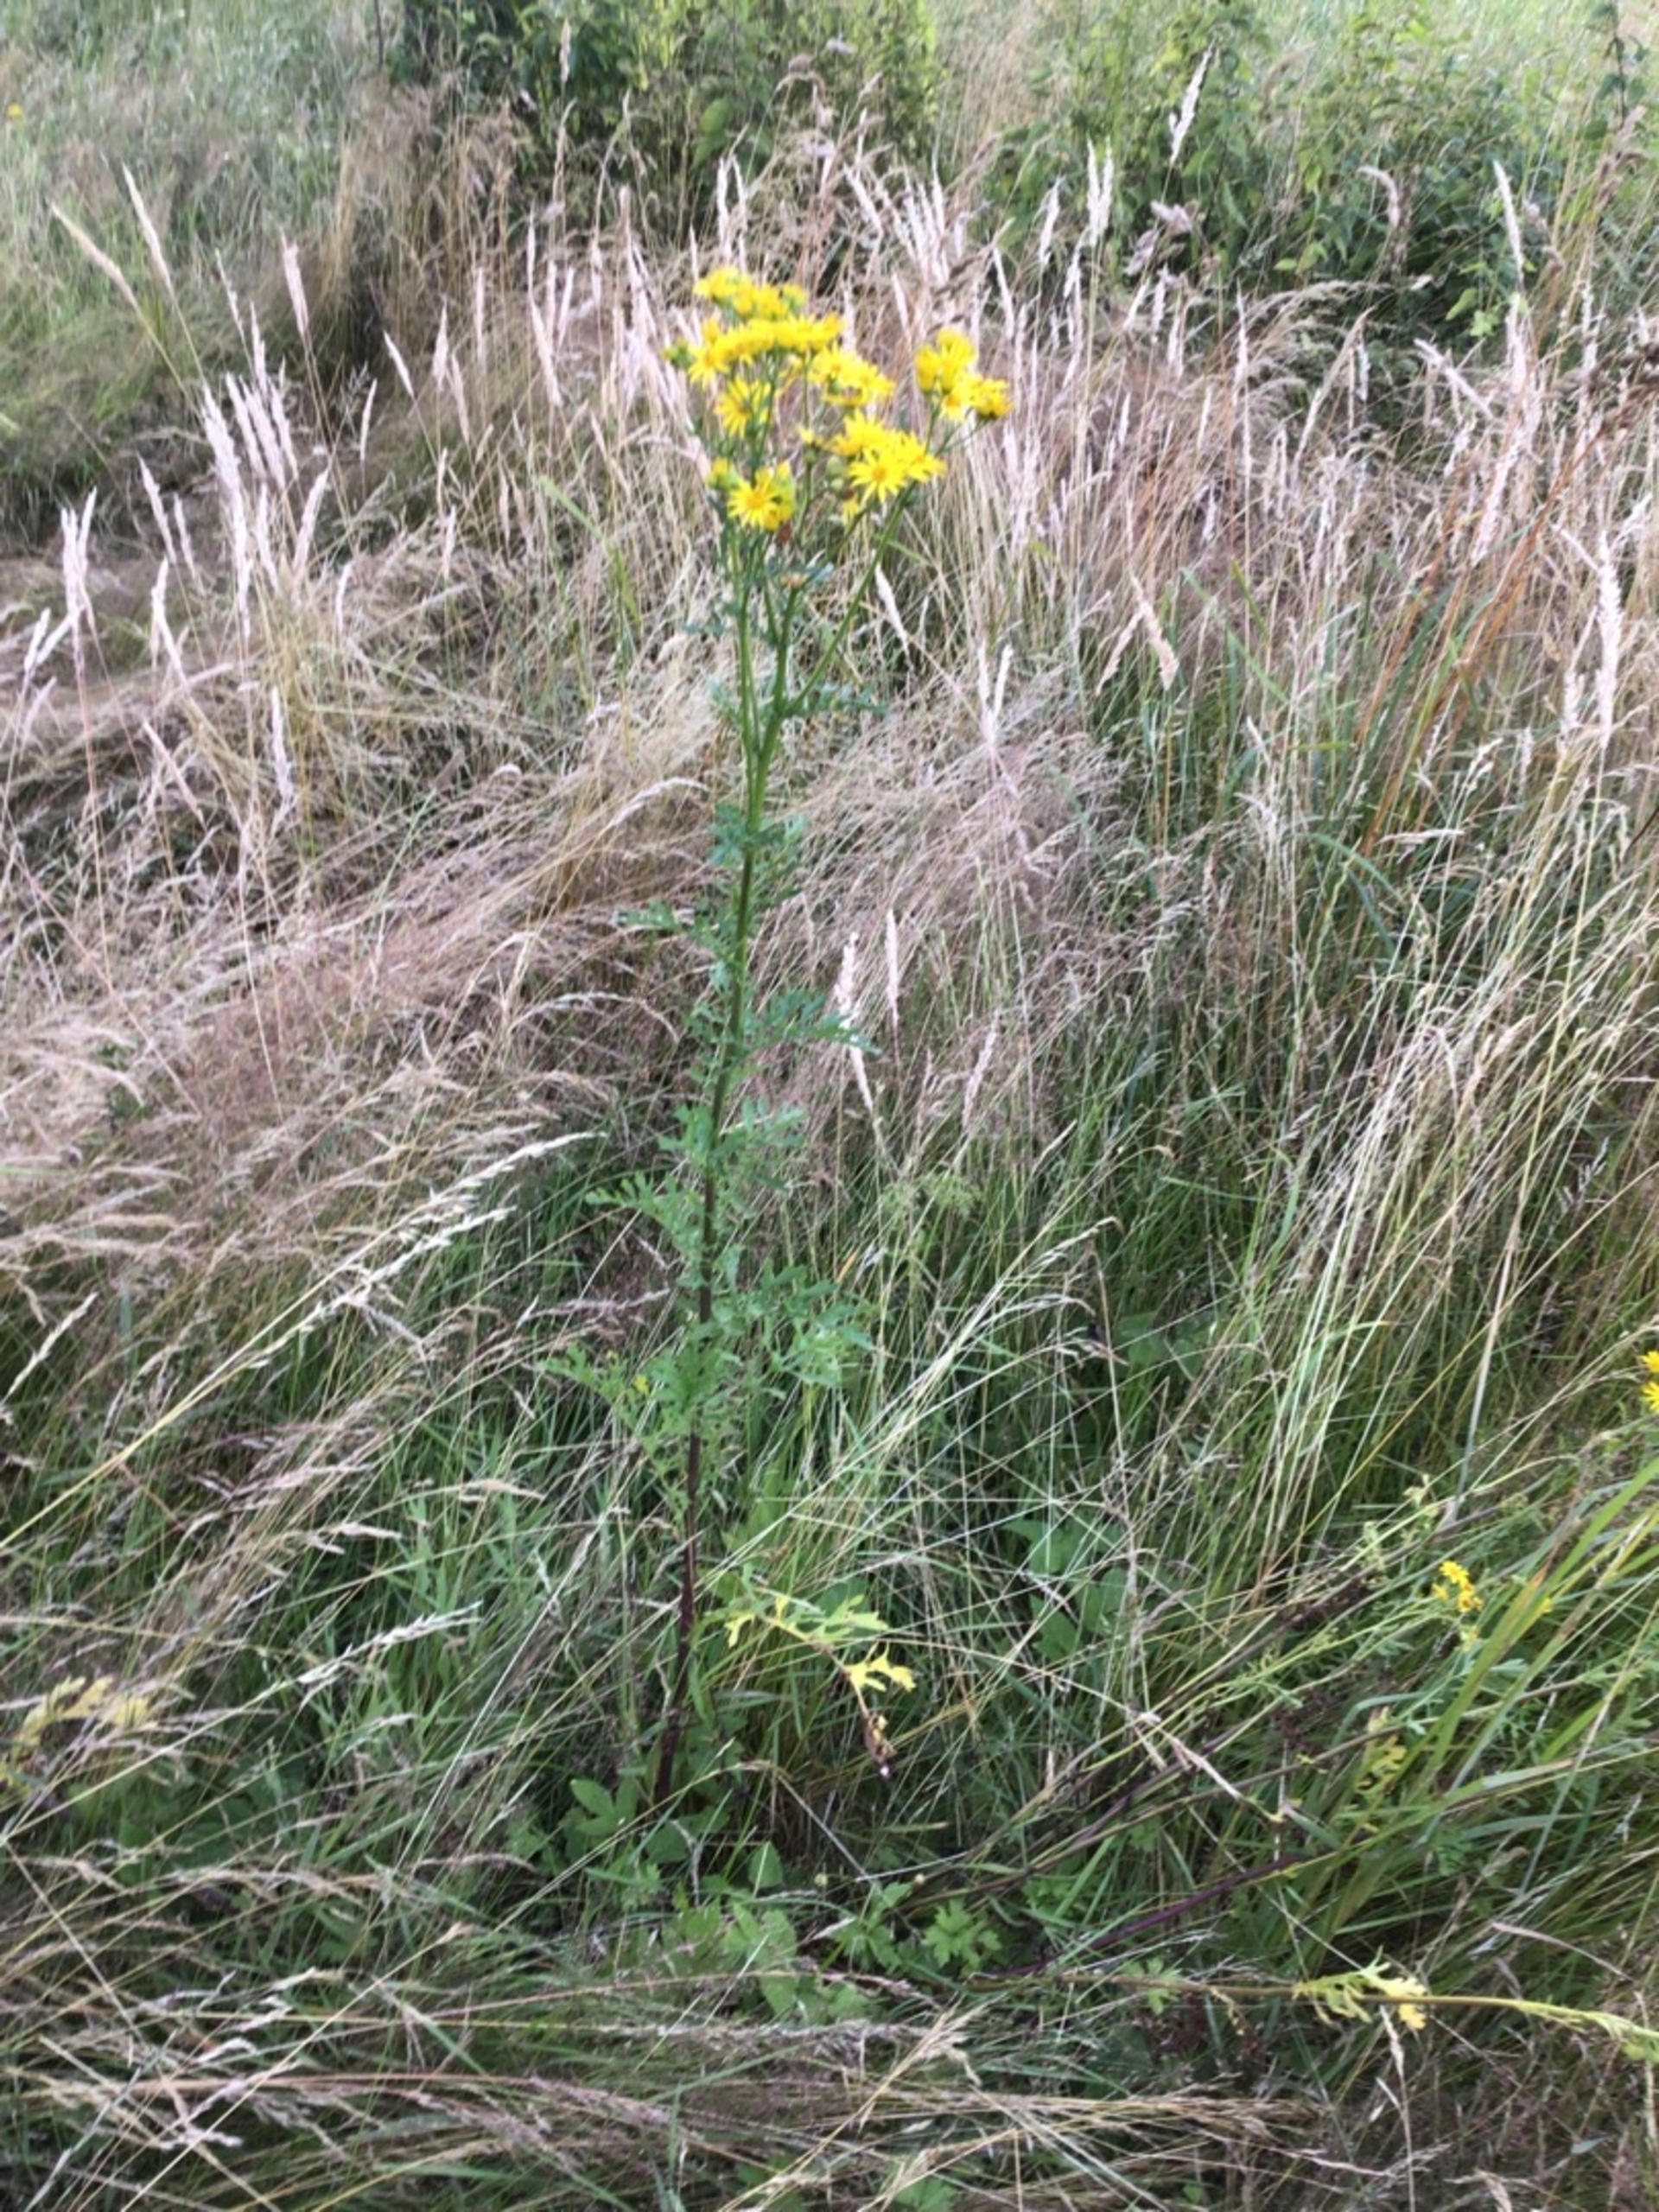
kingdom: Plantae
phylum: Tracheophyta
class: Magnoliopsida
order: Asterales
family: Asteraceae
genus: Jacobaea
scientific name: Jacobaea vulgaris
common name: Eng-brandbæger
